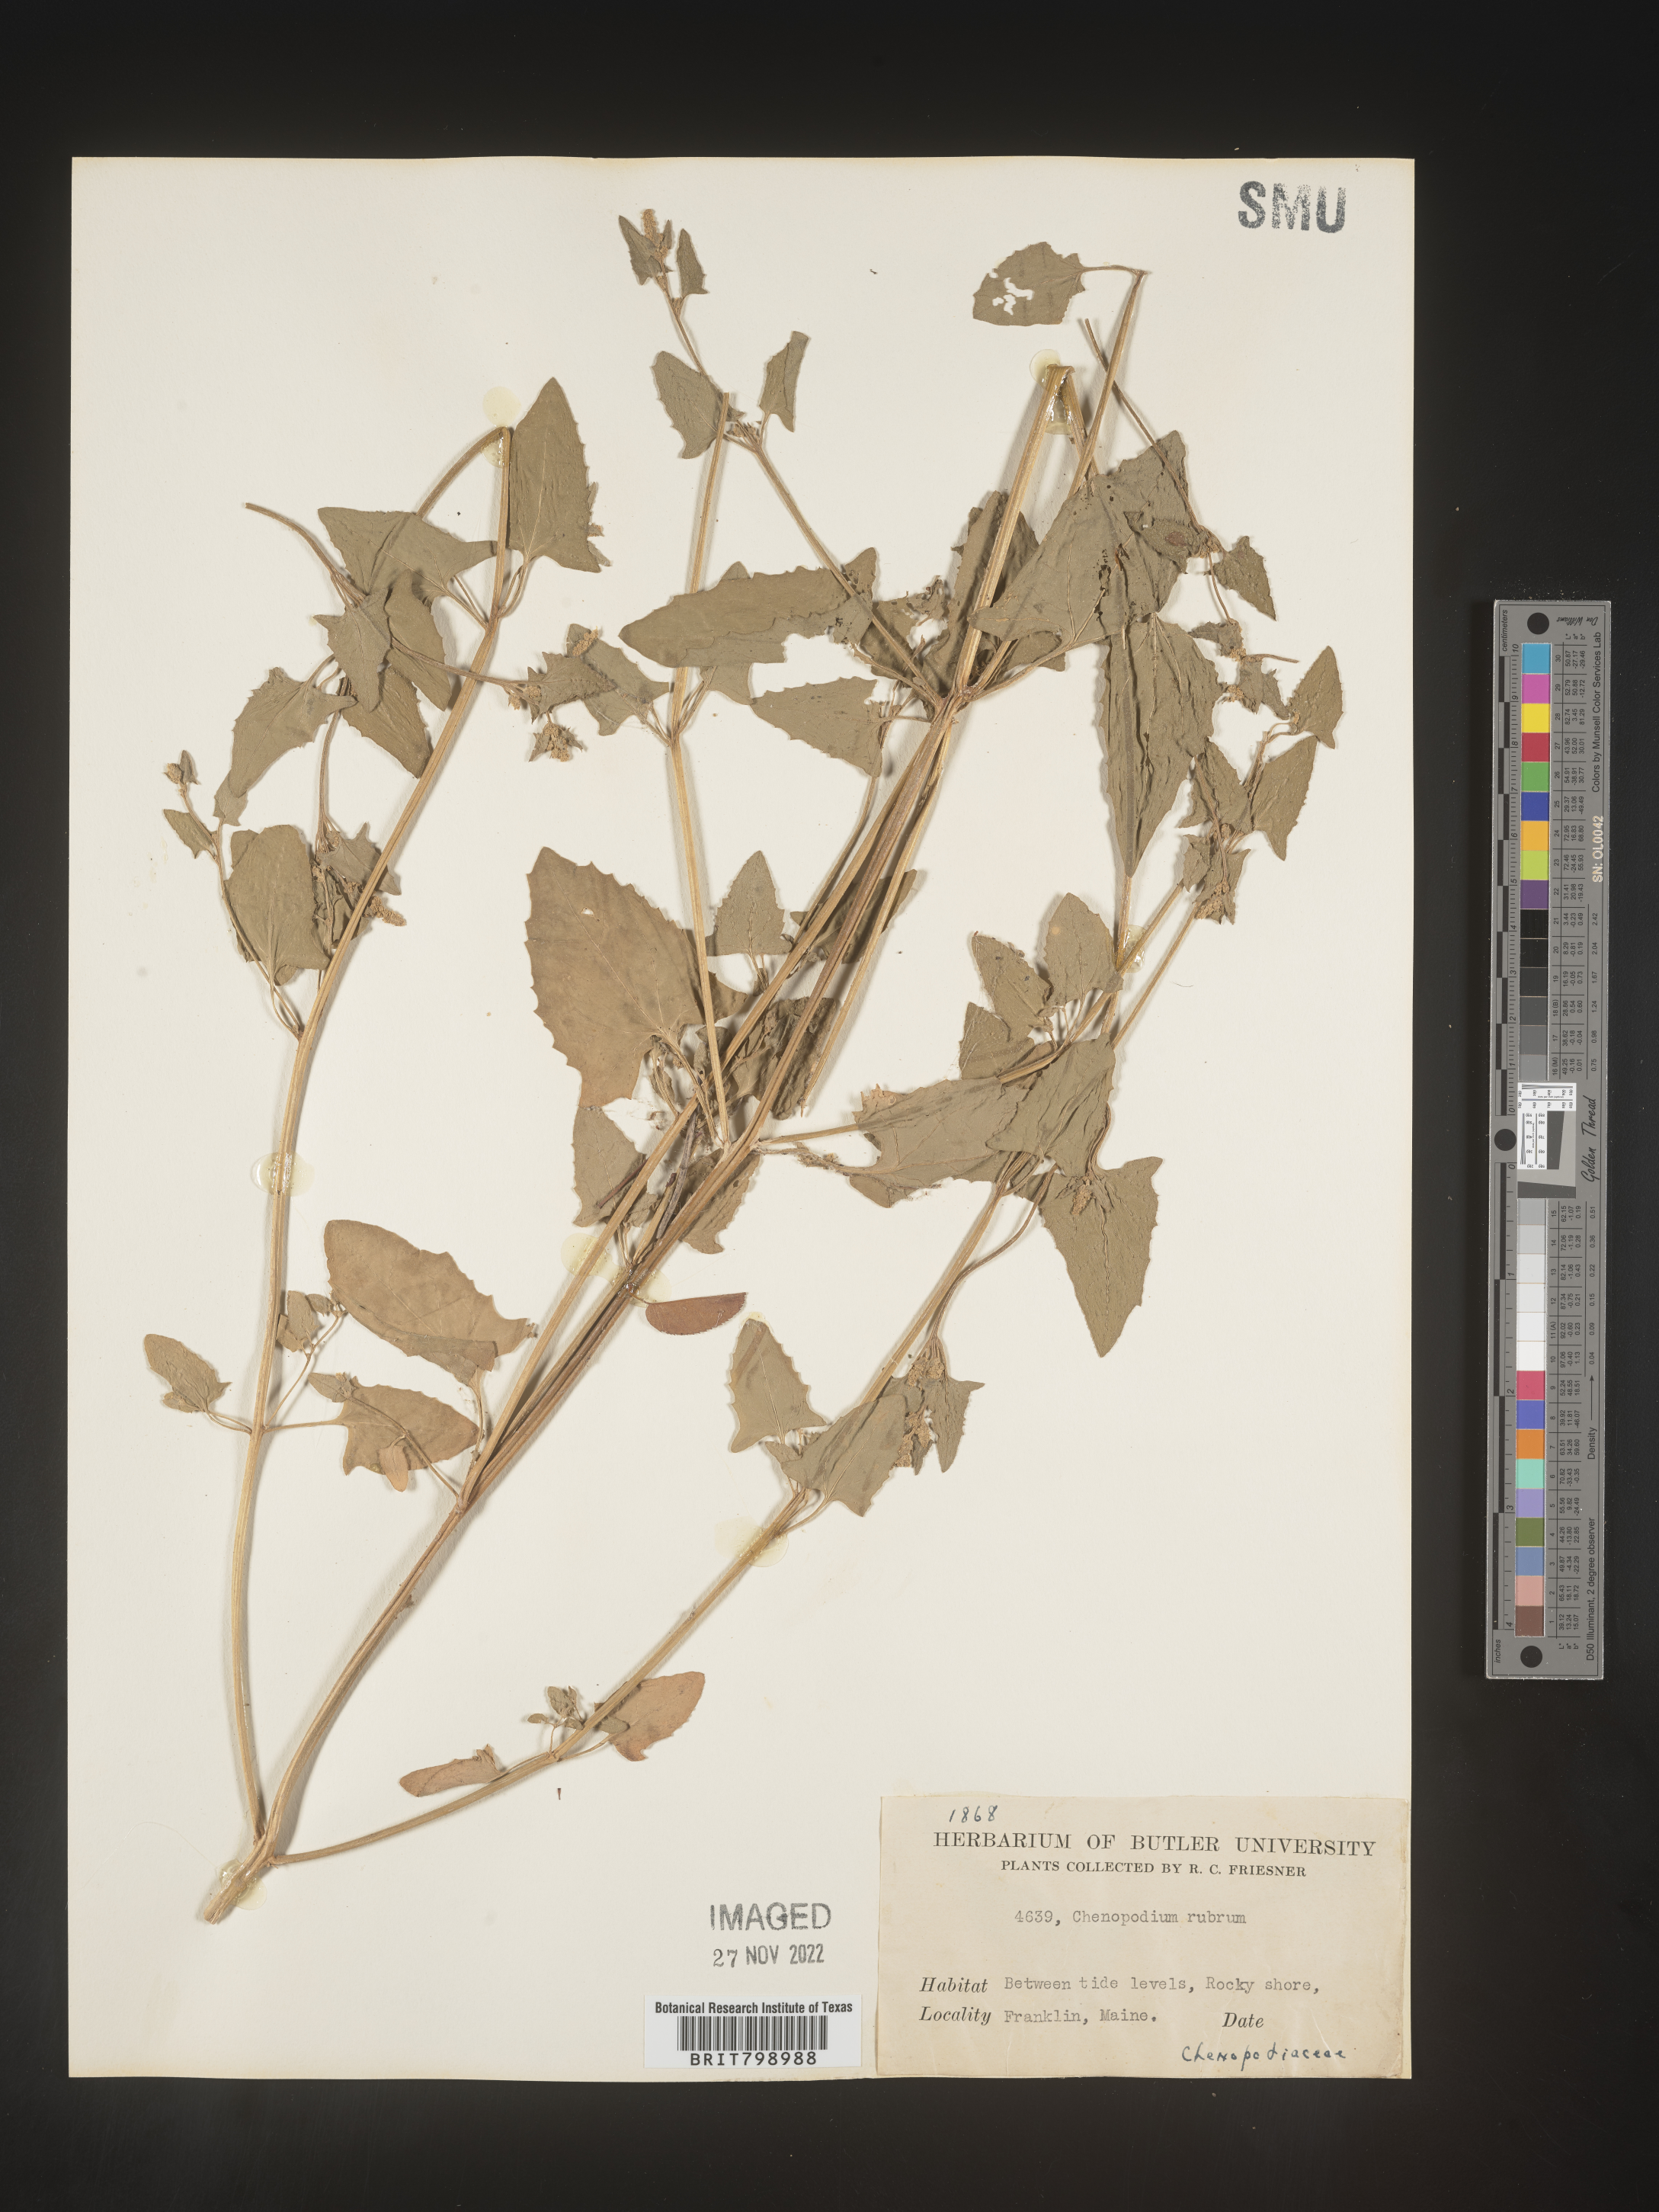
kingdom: Plantae
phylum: Tracheophyta
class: Magnoliopsida
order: Caryophyllales
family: Amaranthaceae
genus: Oxybasis
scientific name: Oxybasis rubra
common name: Red goosefoot
